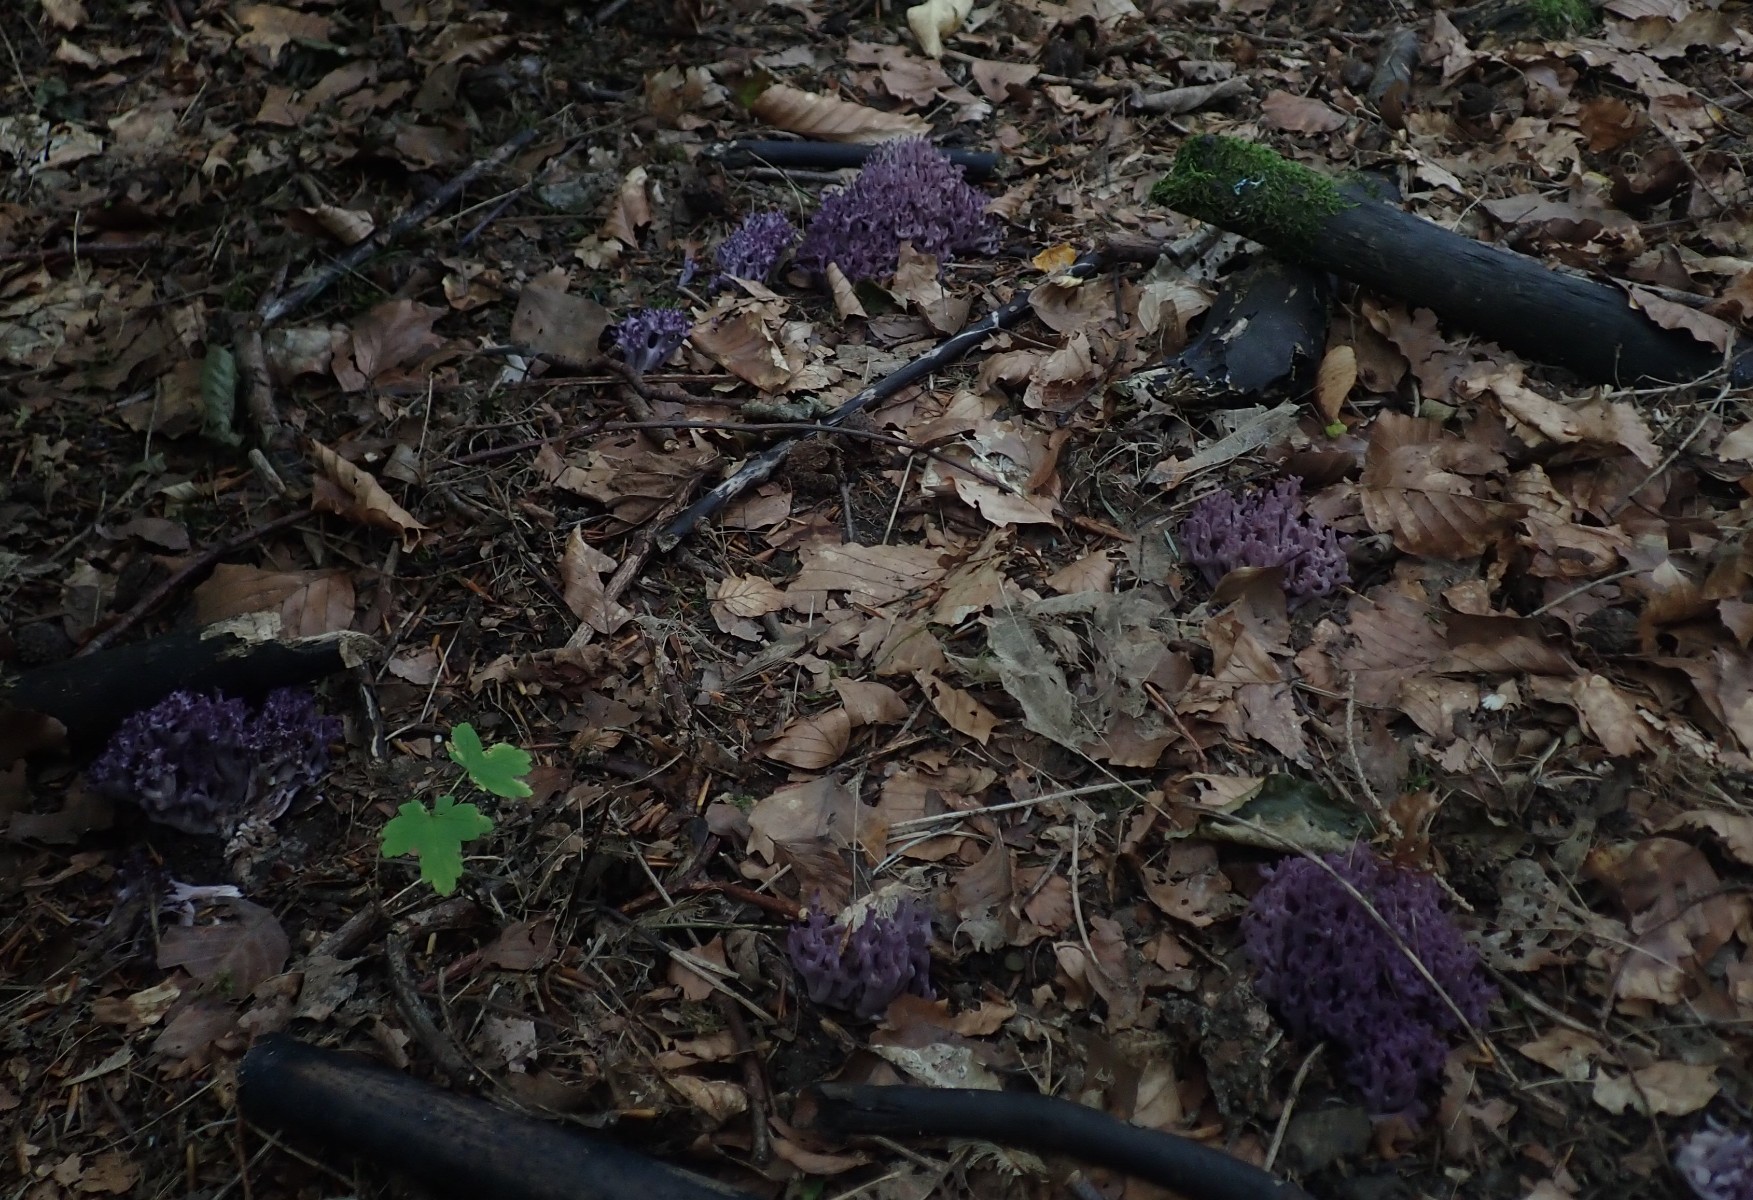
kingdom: Fungi
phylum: Basidiomycota
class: Agaricomycetes
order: Agaricales
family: Clavariaceae
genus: Clavaria
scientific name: Clavaria zollingeri
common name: purpur-køllesvamp
